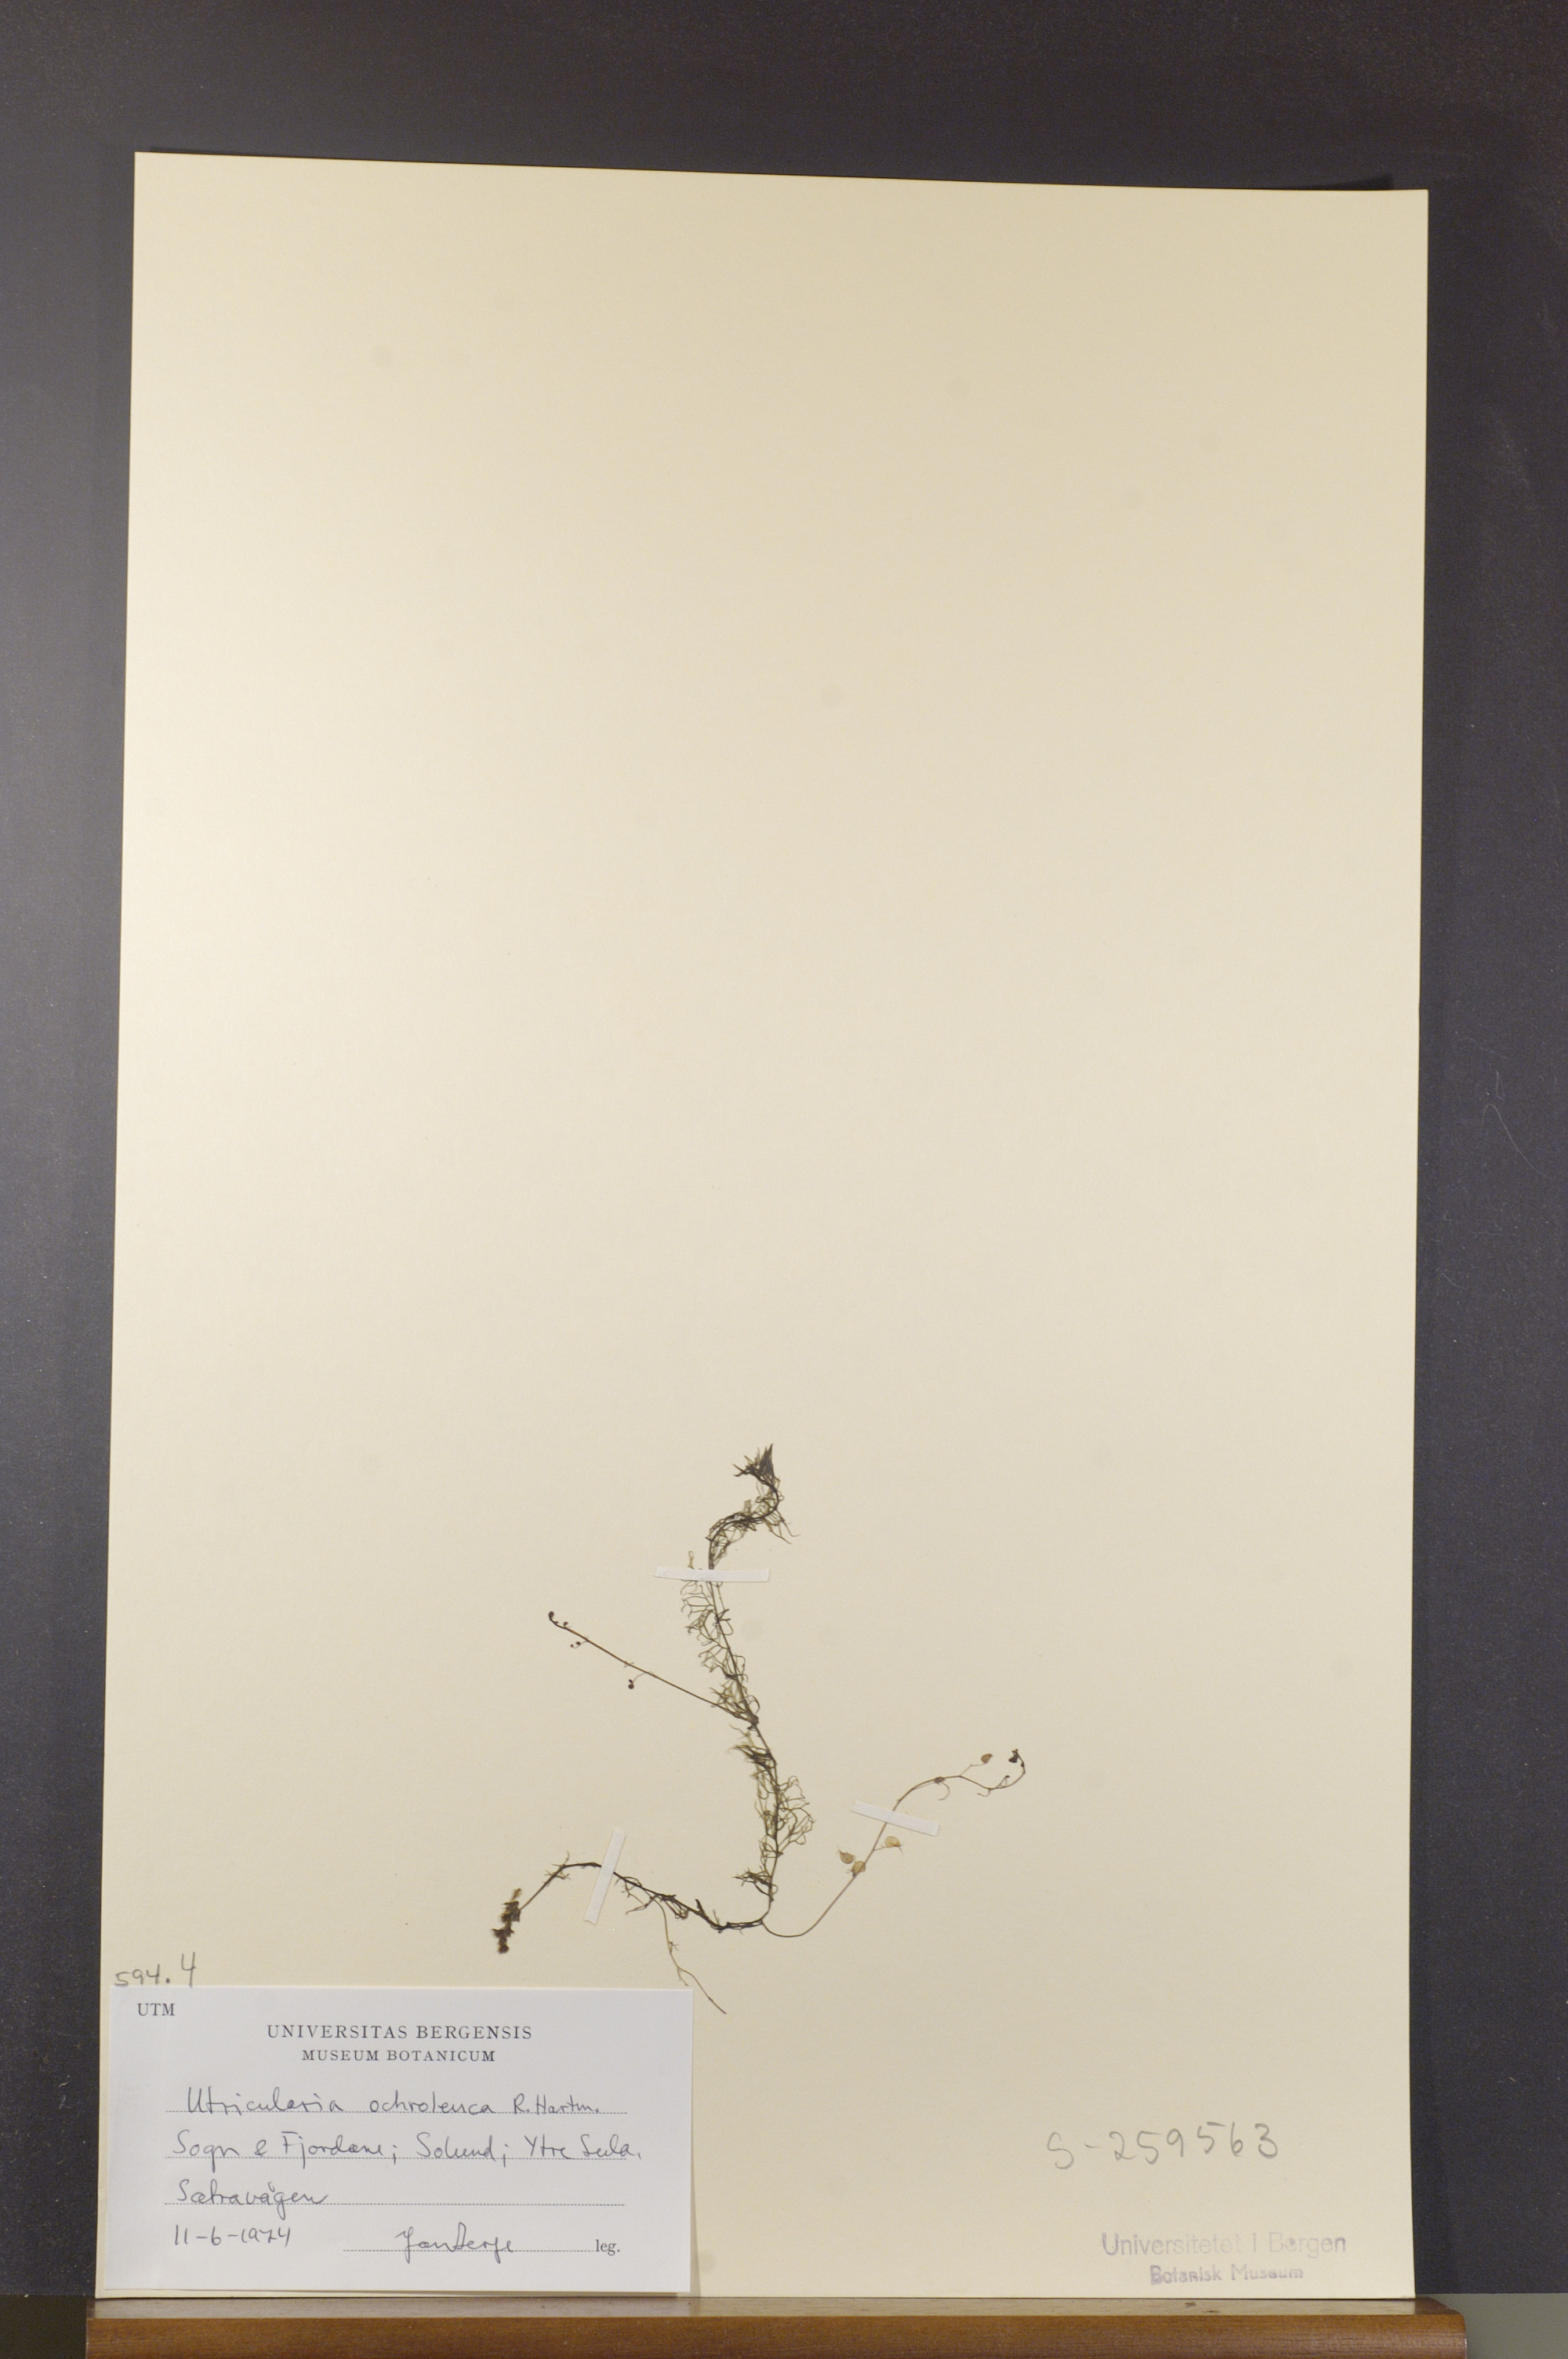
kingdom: Plantae
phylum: Tracheophyta
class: Magnoliopsida
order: Lamiales
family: Lentibulariaceae
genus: Utricularia
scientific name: Utricularia ochroleuca
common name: Pale bladderwort
